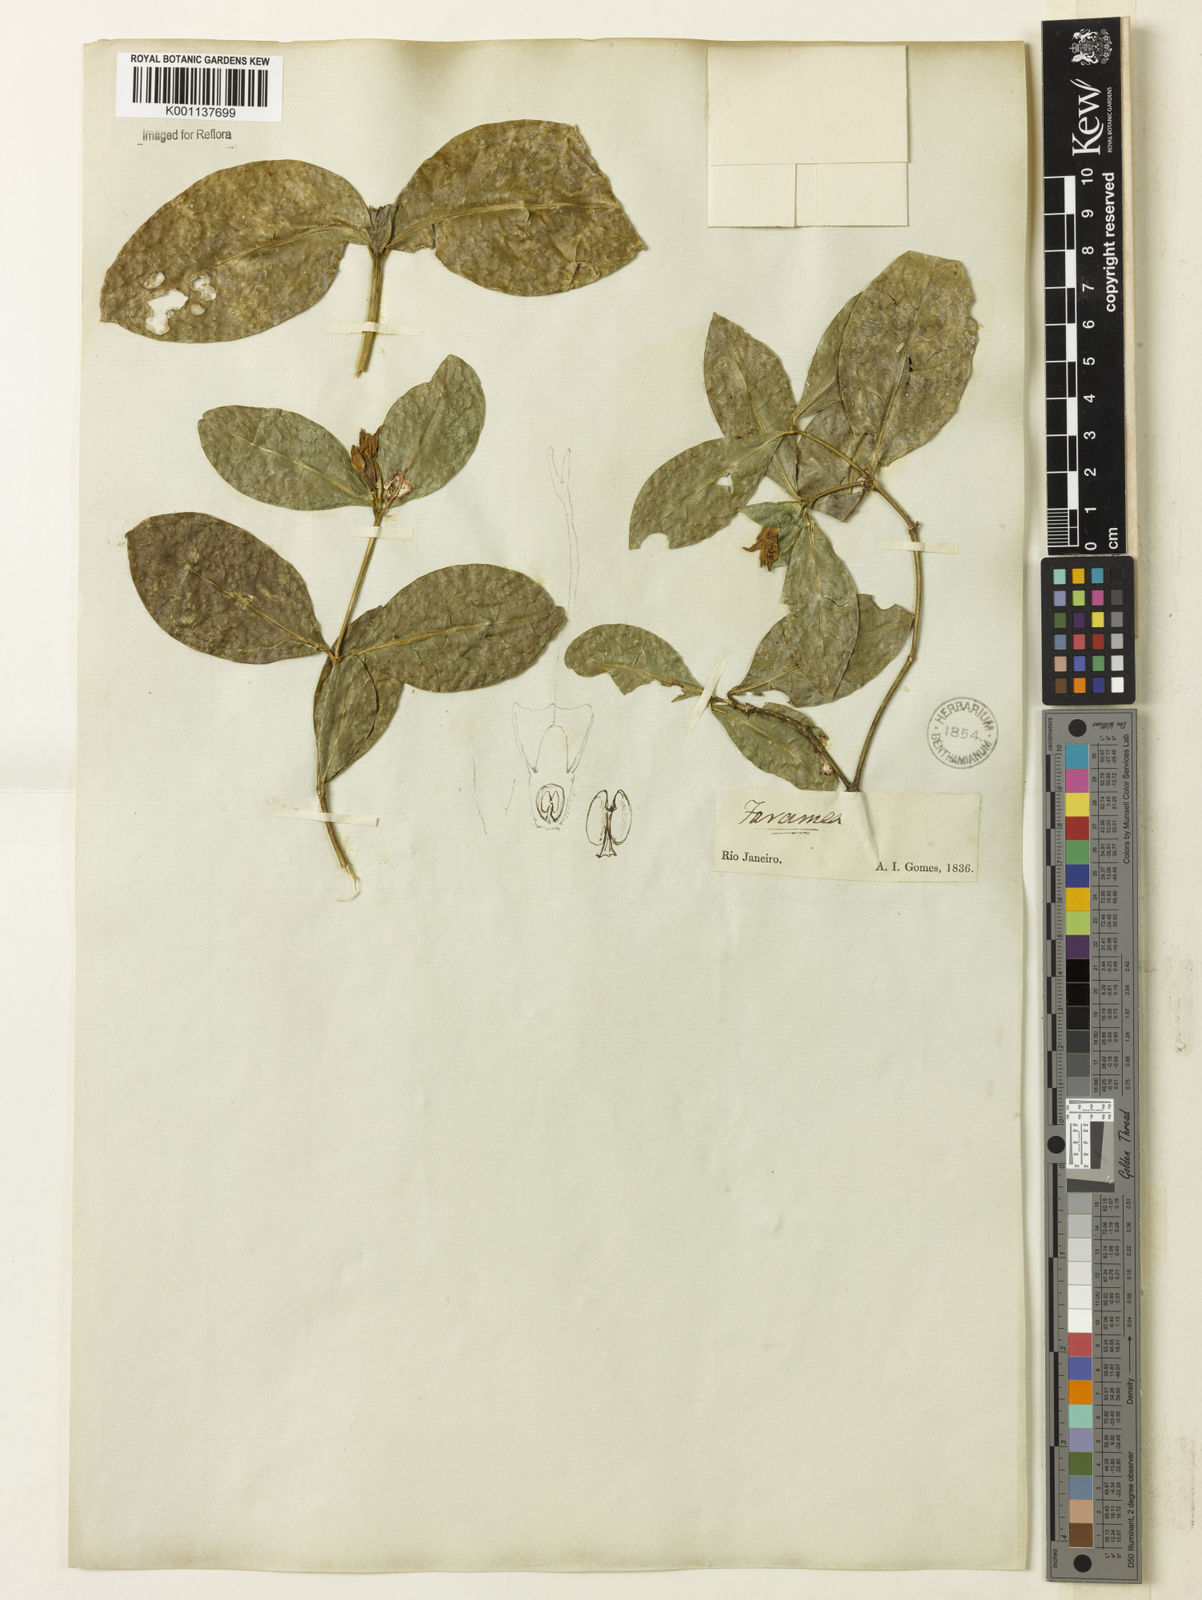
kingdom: Plantae
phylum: Tracheophyta
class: Magnoliopsida
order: Gentianales
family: Rubiaceae
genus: Coussarea
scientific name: Coussarea
